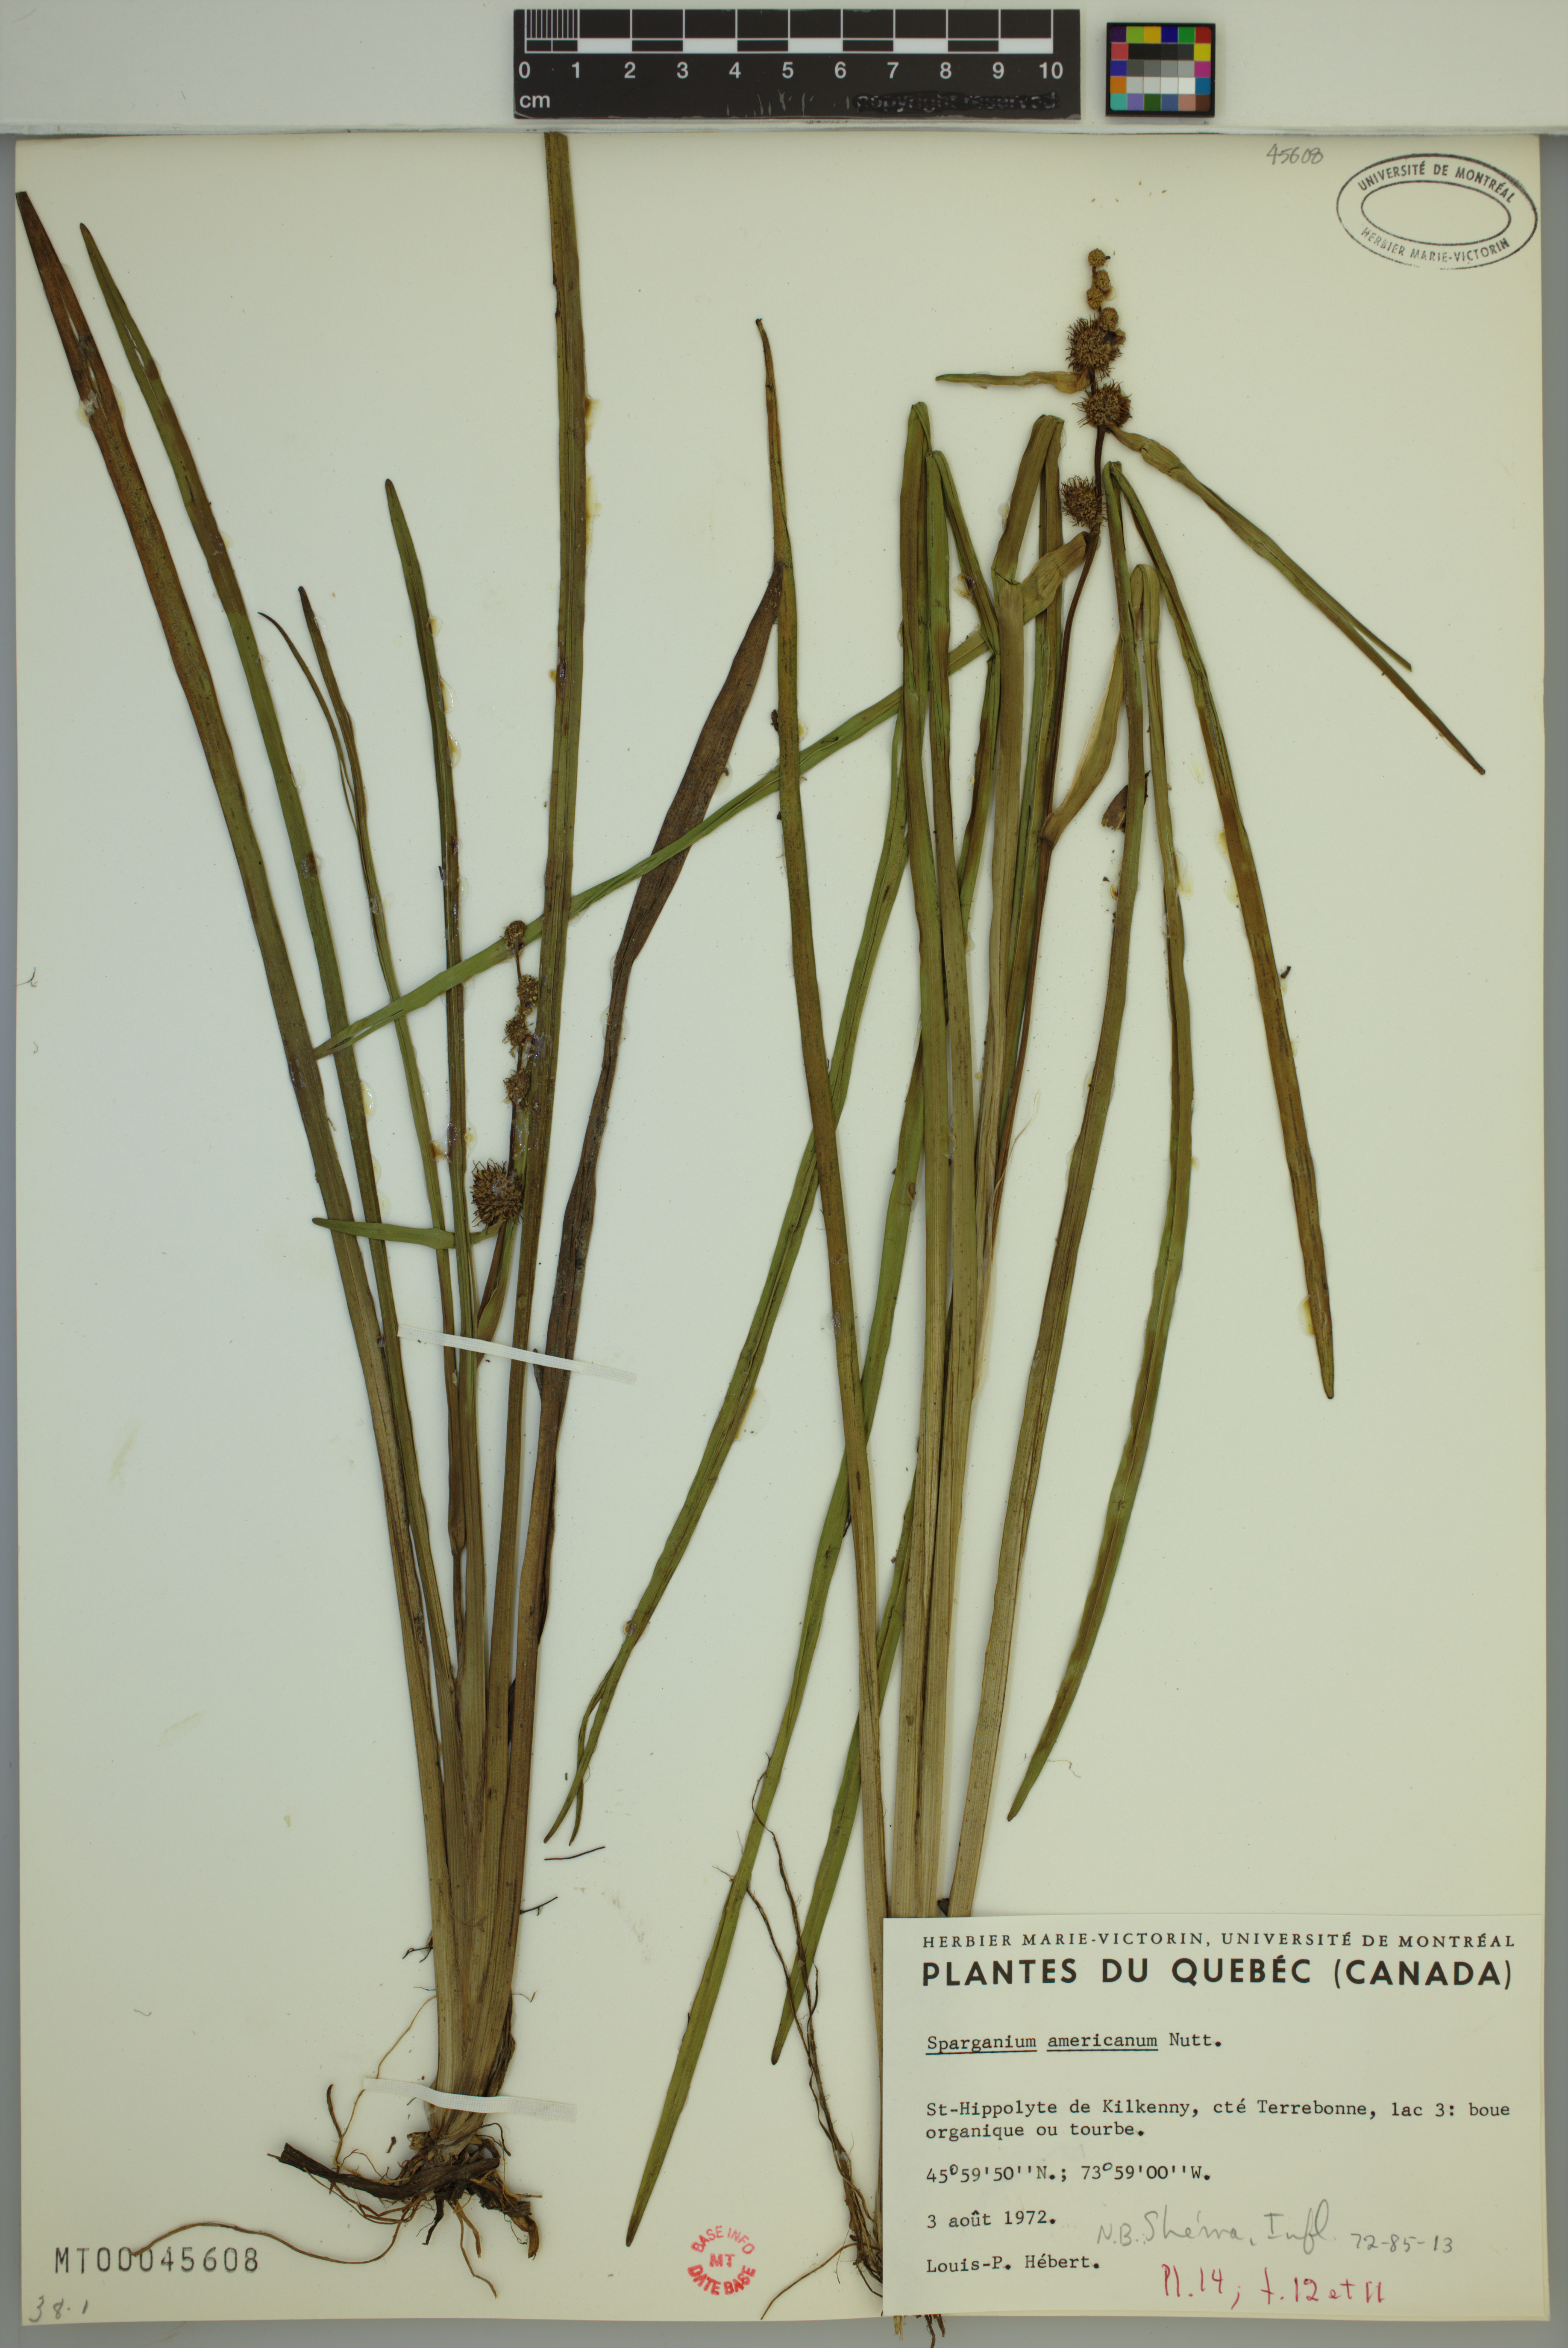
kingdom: Plantae
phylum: Tracheophyta
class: Liliopsida
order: Poales
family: Typhaceae
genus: Sparganium
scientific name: Sparganium americanum
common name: American burreed
